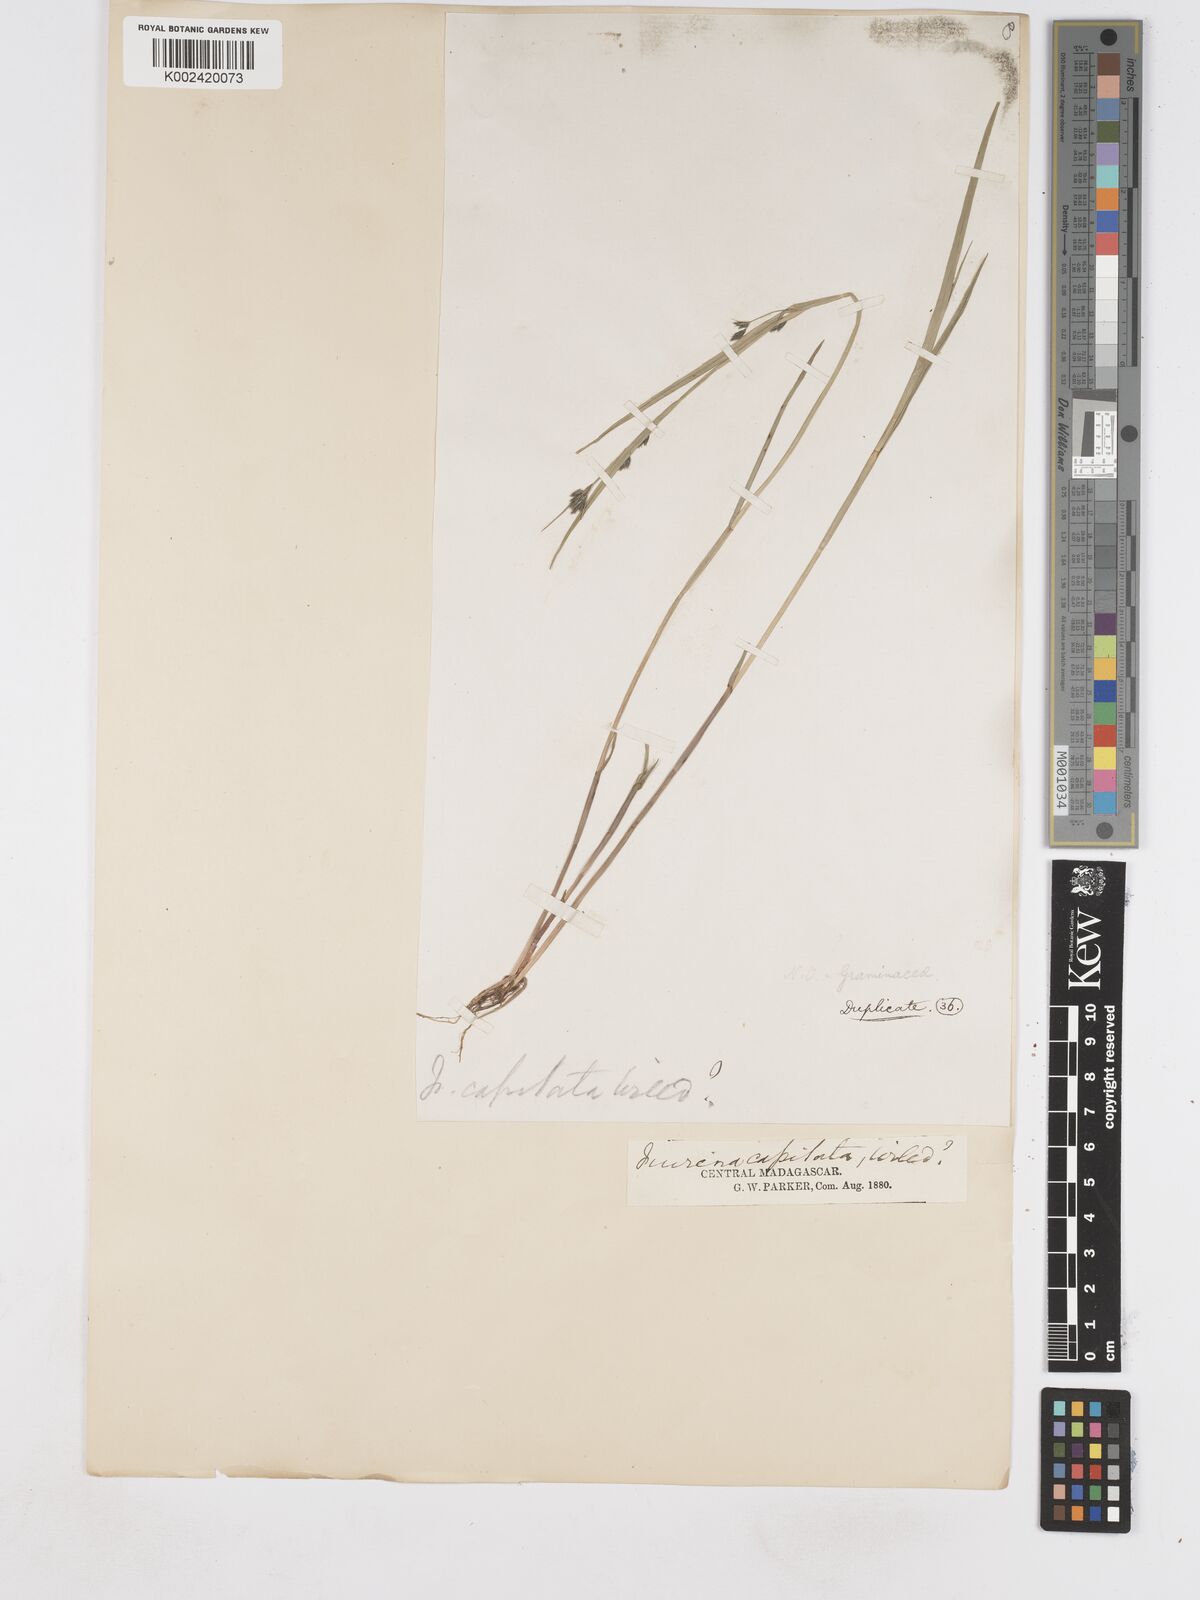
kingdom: Plantae
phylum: Tracheophyta
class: Liliopsida
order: Poales
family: Cyperaceae
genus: Fuirena
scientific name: Fuirena umbellata
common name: Yefen
